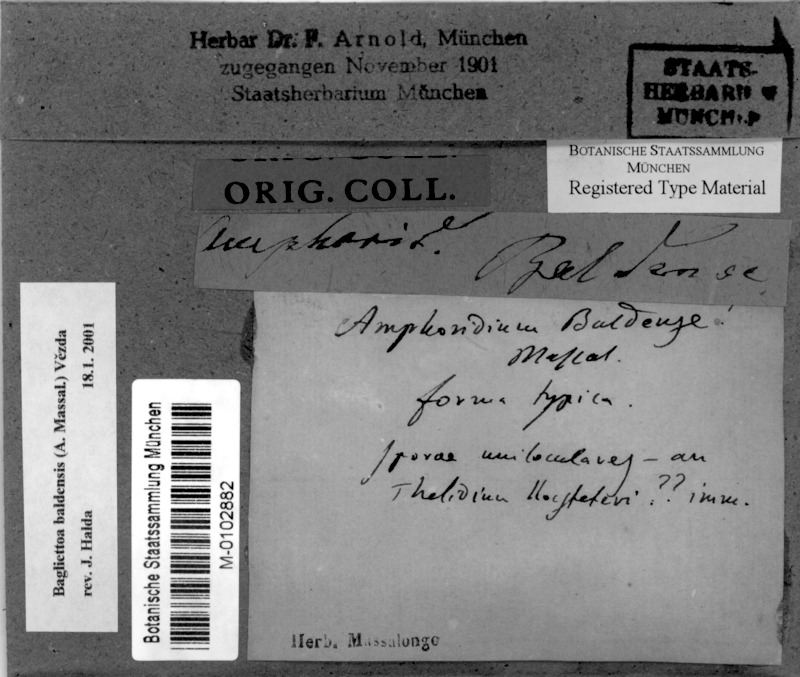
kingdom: Fungi
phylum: Ascomycota
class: Eurotiomycetes
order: Verrucariales
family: Verrucariaceae
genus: Bagliettoa
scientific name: Bagliettoa baldensis
